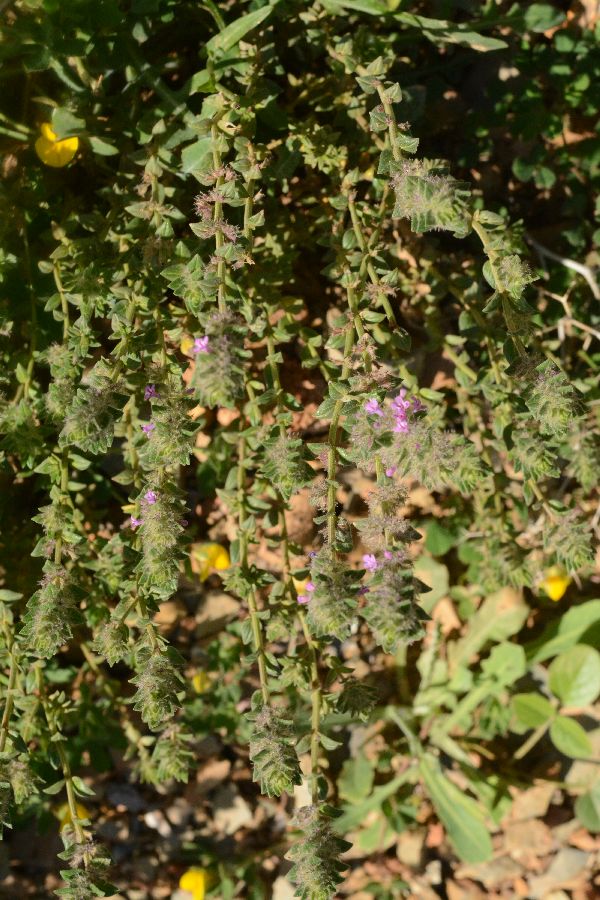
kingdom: Plantae
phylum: Tracheophyta
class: Magnoliopsida
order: Lamiales
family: Lamiaceae
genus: Micromeria
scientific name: Micromeria nervosa
